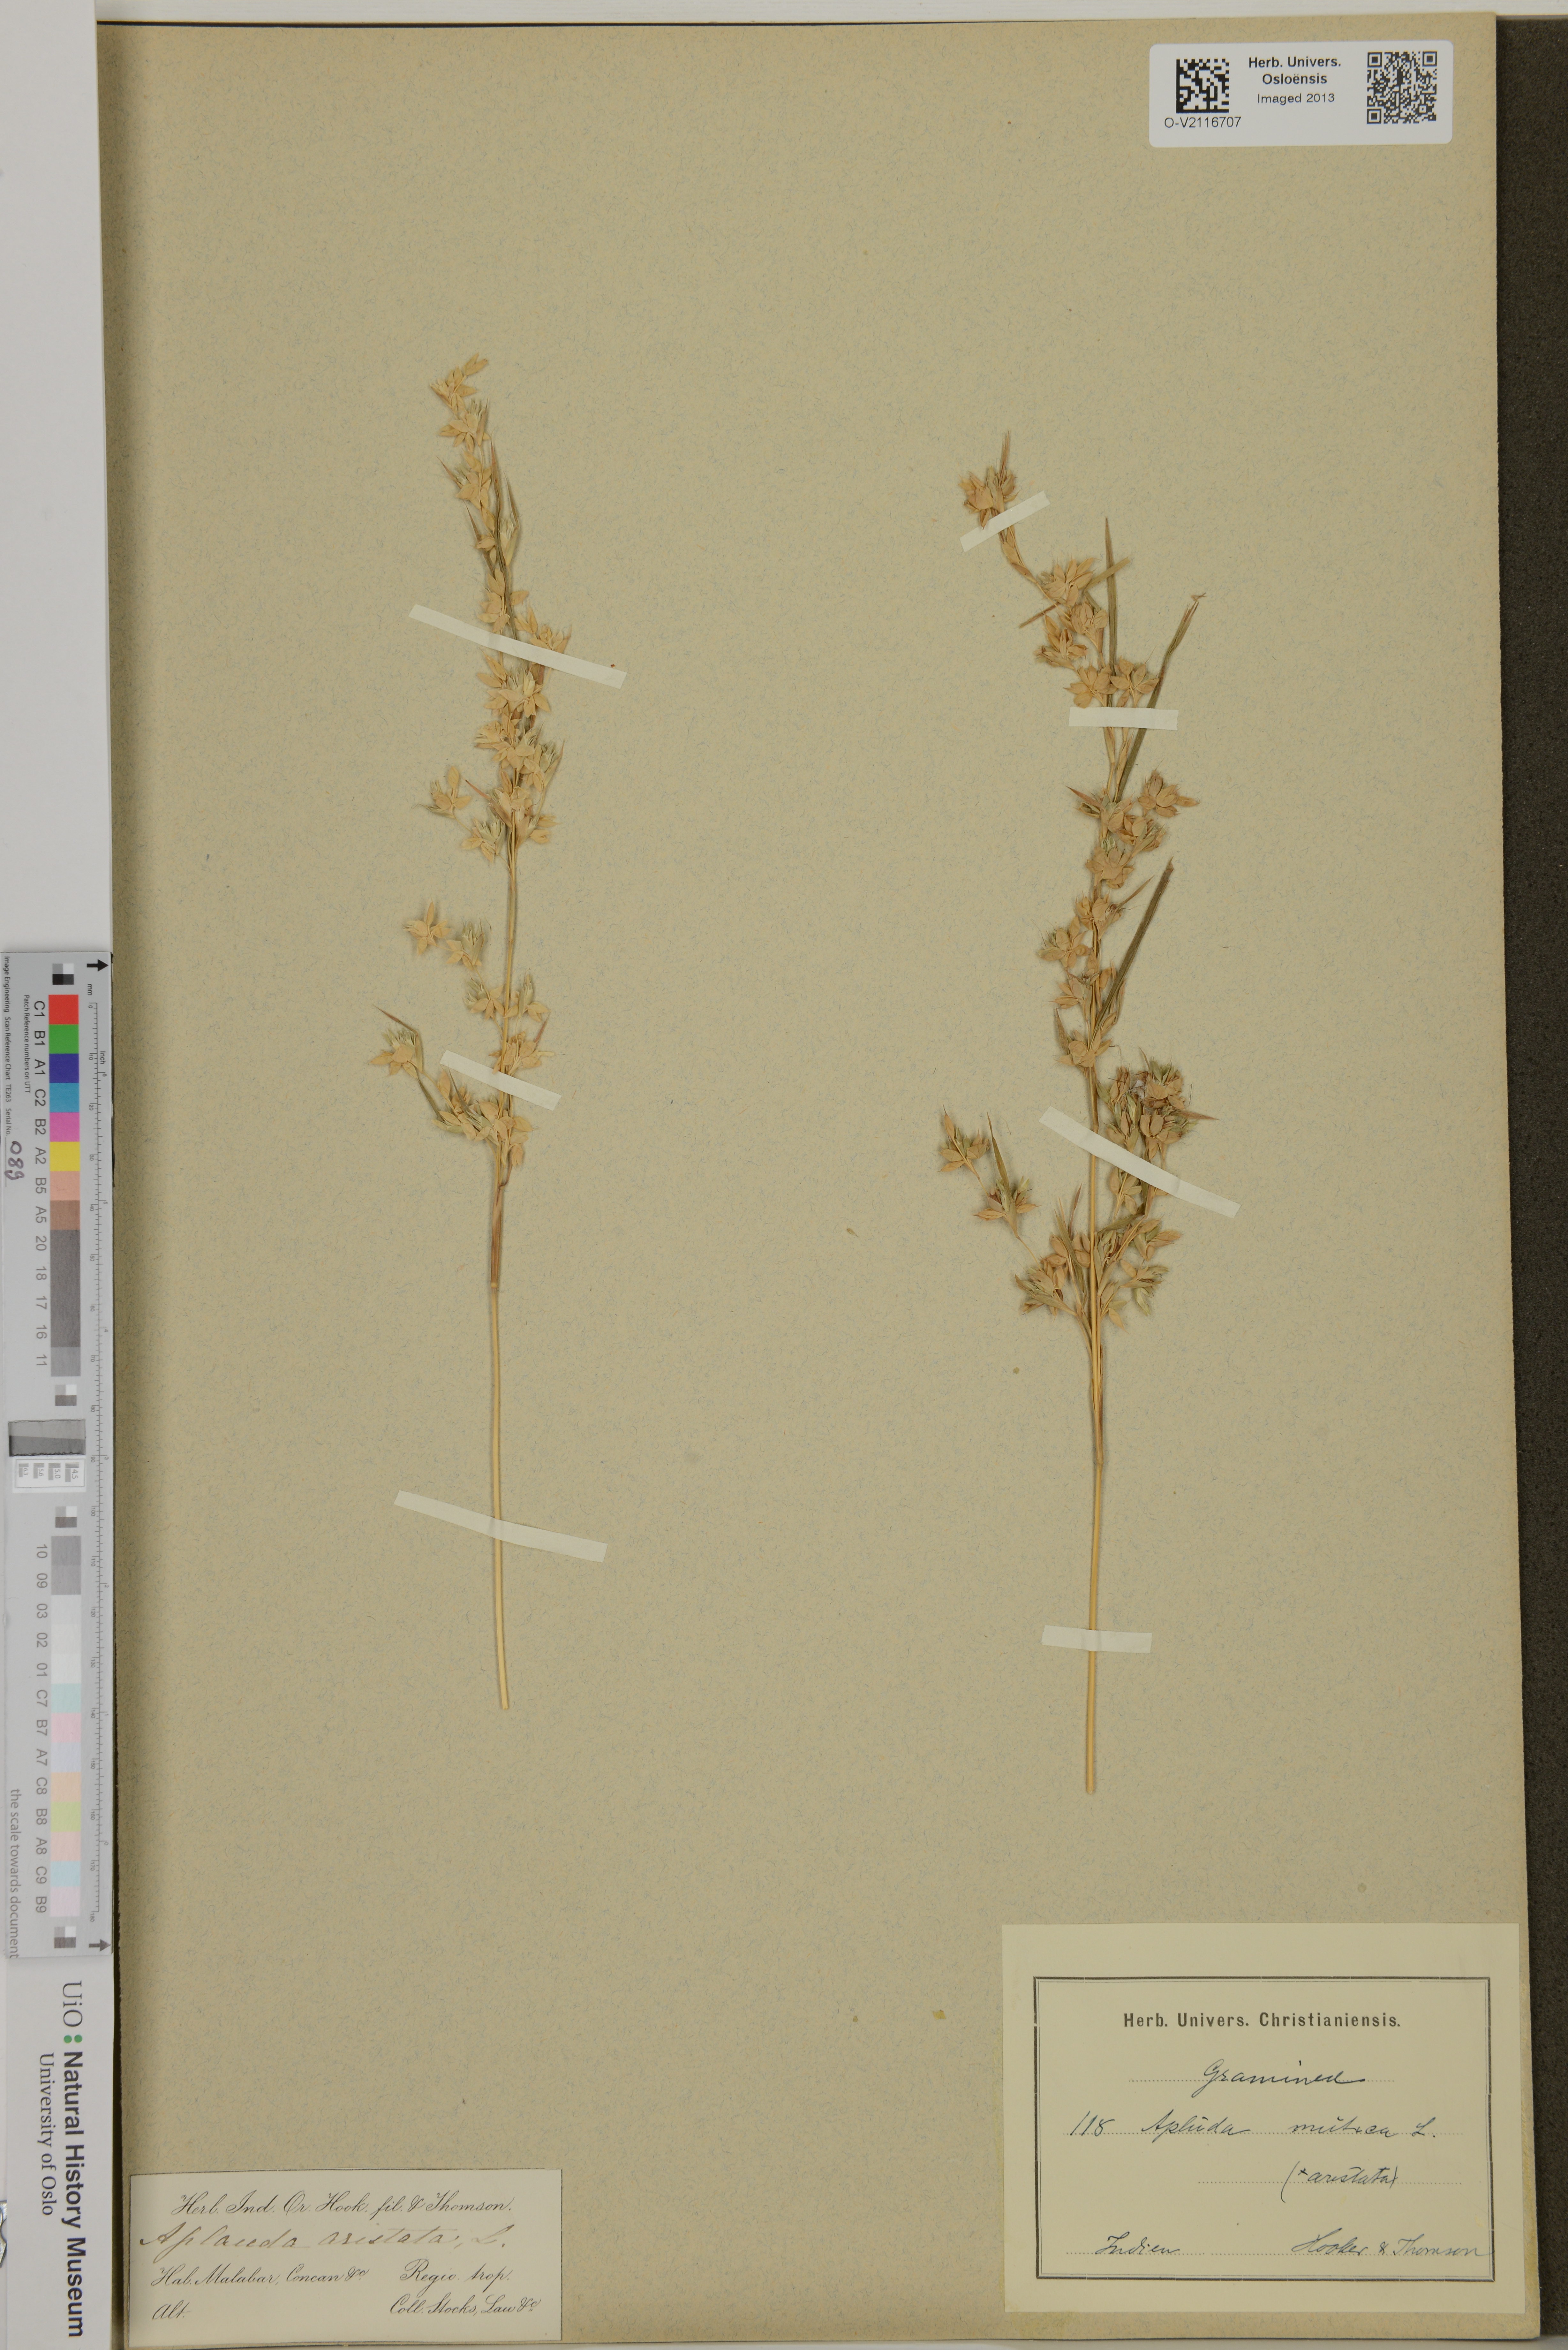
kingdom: Plantae
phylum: Tracheophyta
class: Liliopsida
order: Poales
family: Poaceae
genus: Apluda
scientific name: Apluda mutica
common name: Mauritian grass
